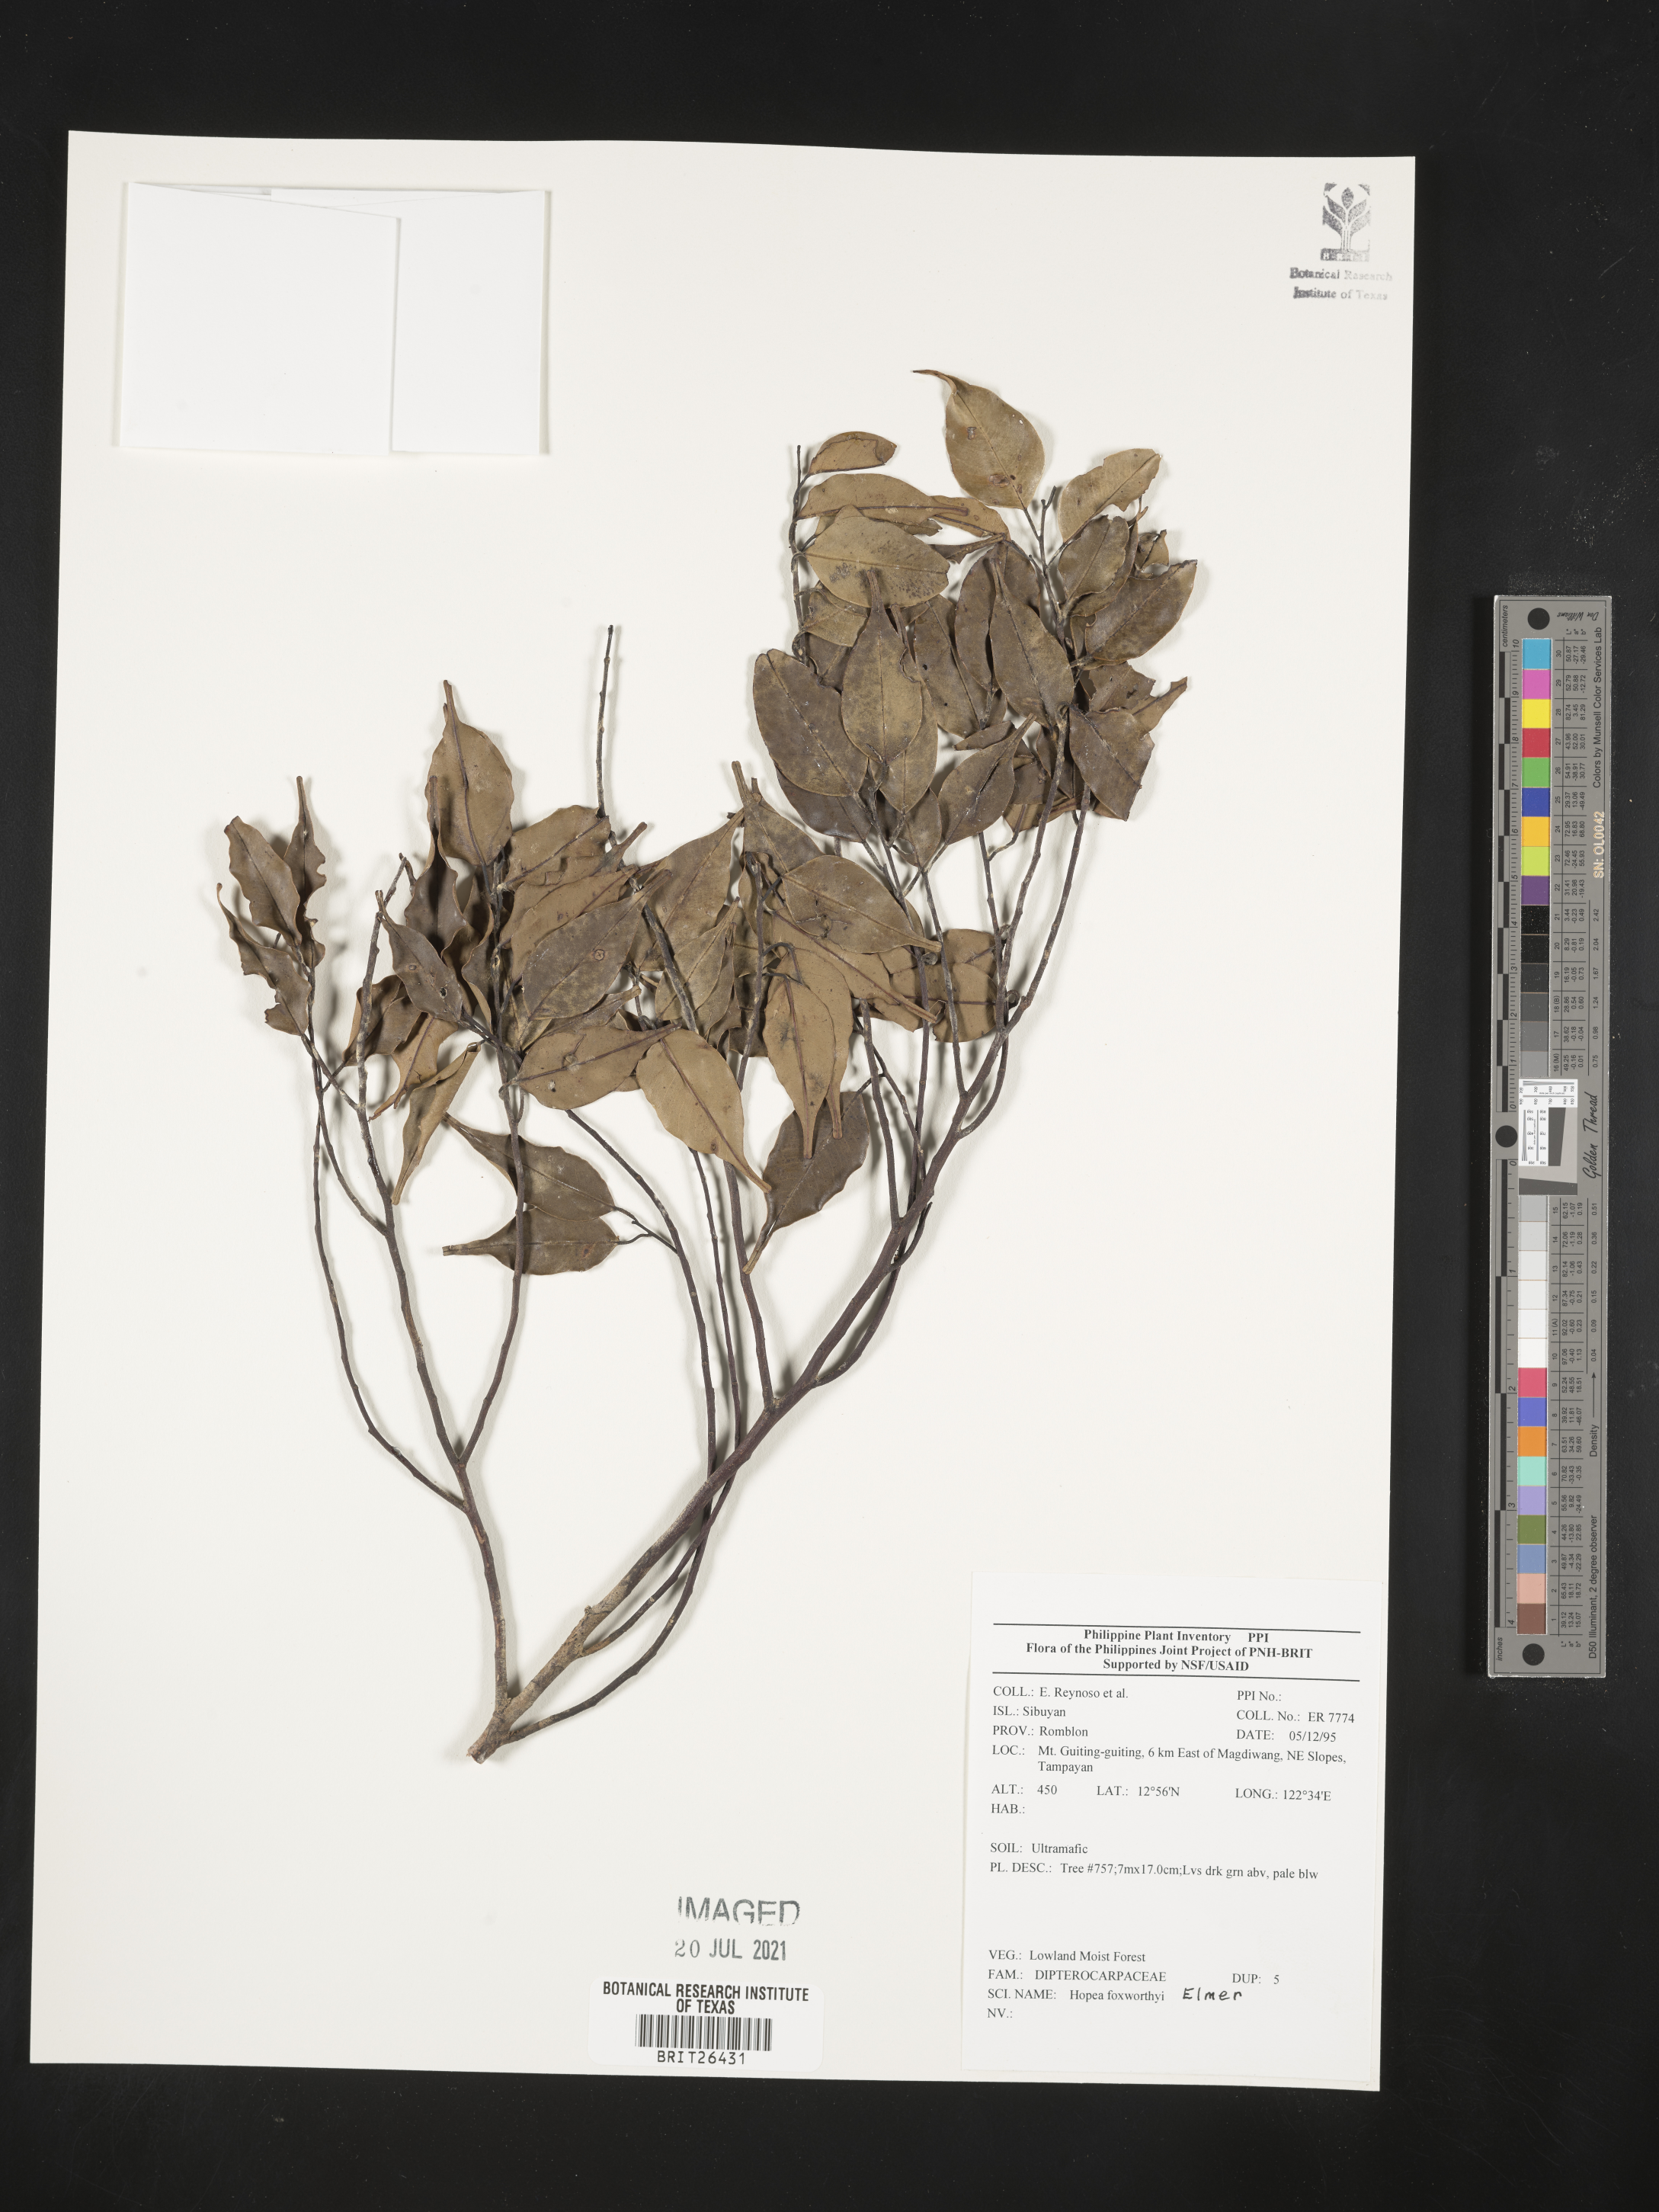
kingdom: Plantae
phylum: Tracheophyta
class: Magnoliopsida
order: Malvales
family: Dipterocarpaceae
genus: Hopea
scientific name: Hopea foxworthyi
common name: Dalingdingan
